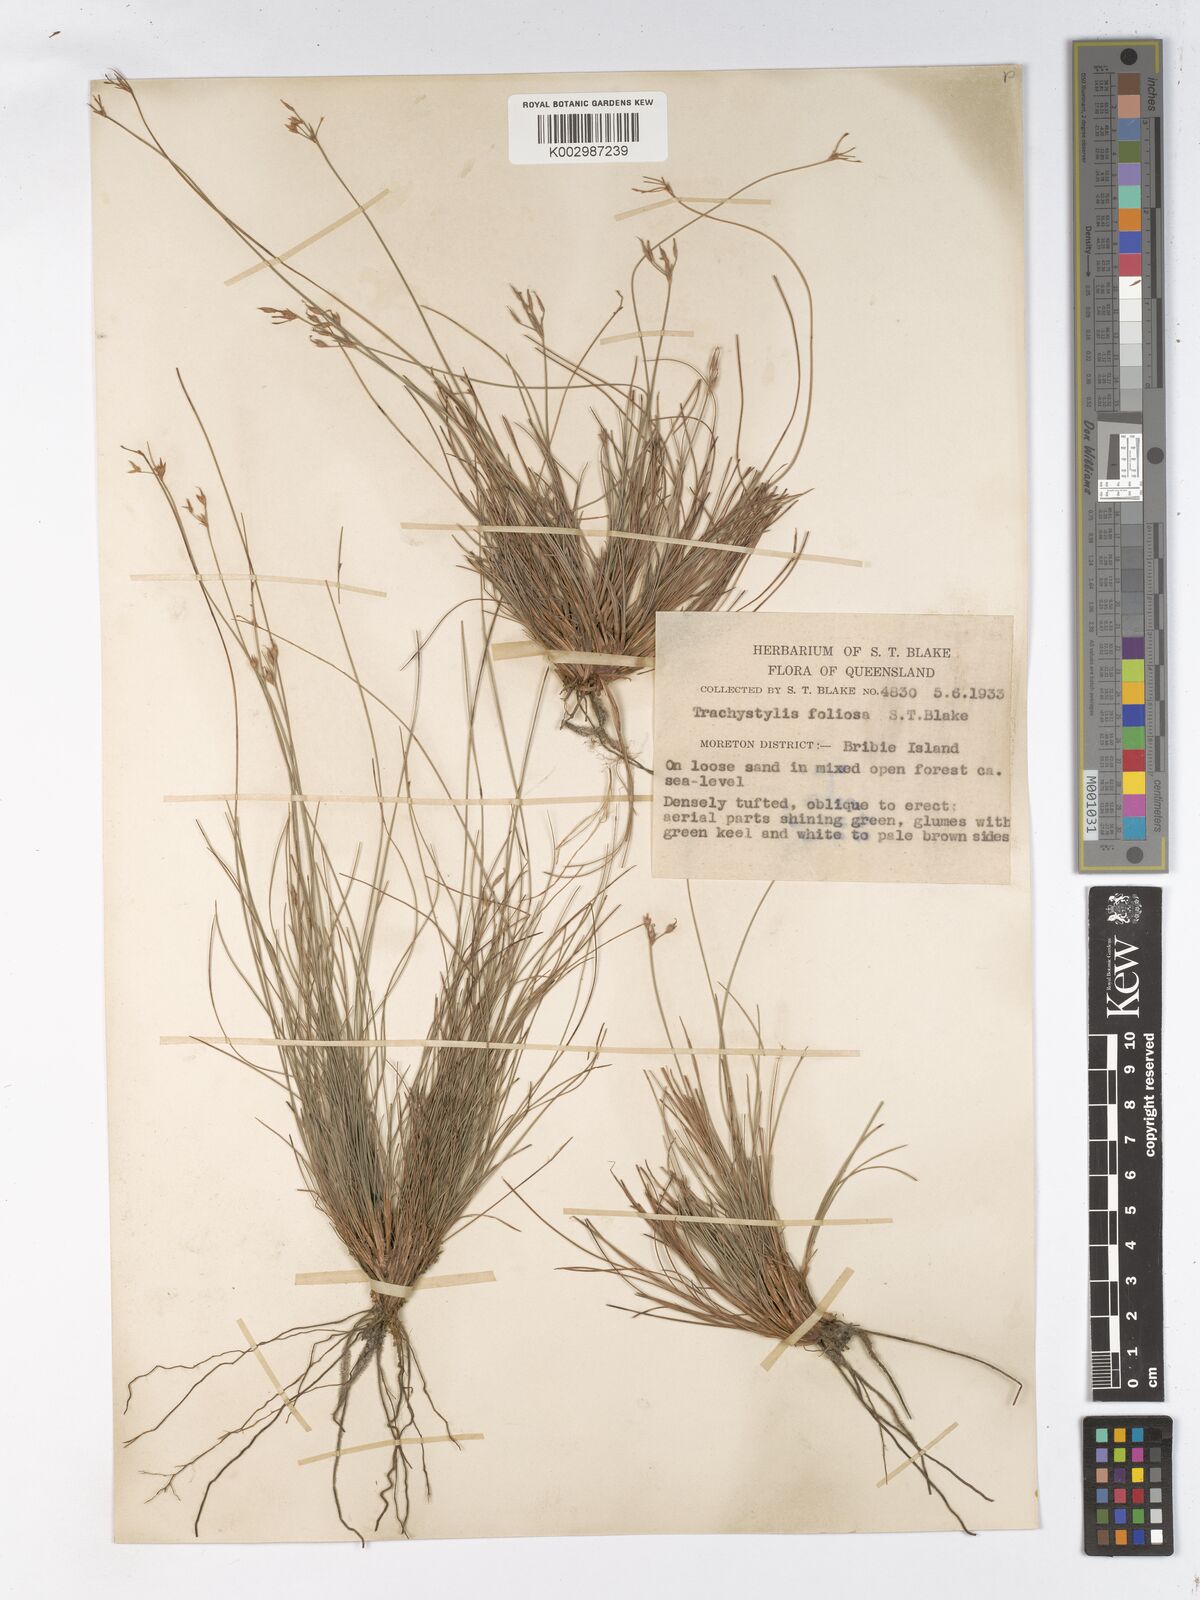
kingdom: Plantae
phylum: Tracheophyta
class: Liliopsida
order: Poales
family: Cyperaceae
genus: Trachystylis
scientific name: Trachystylis stradbrokensis
